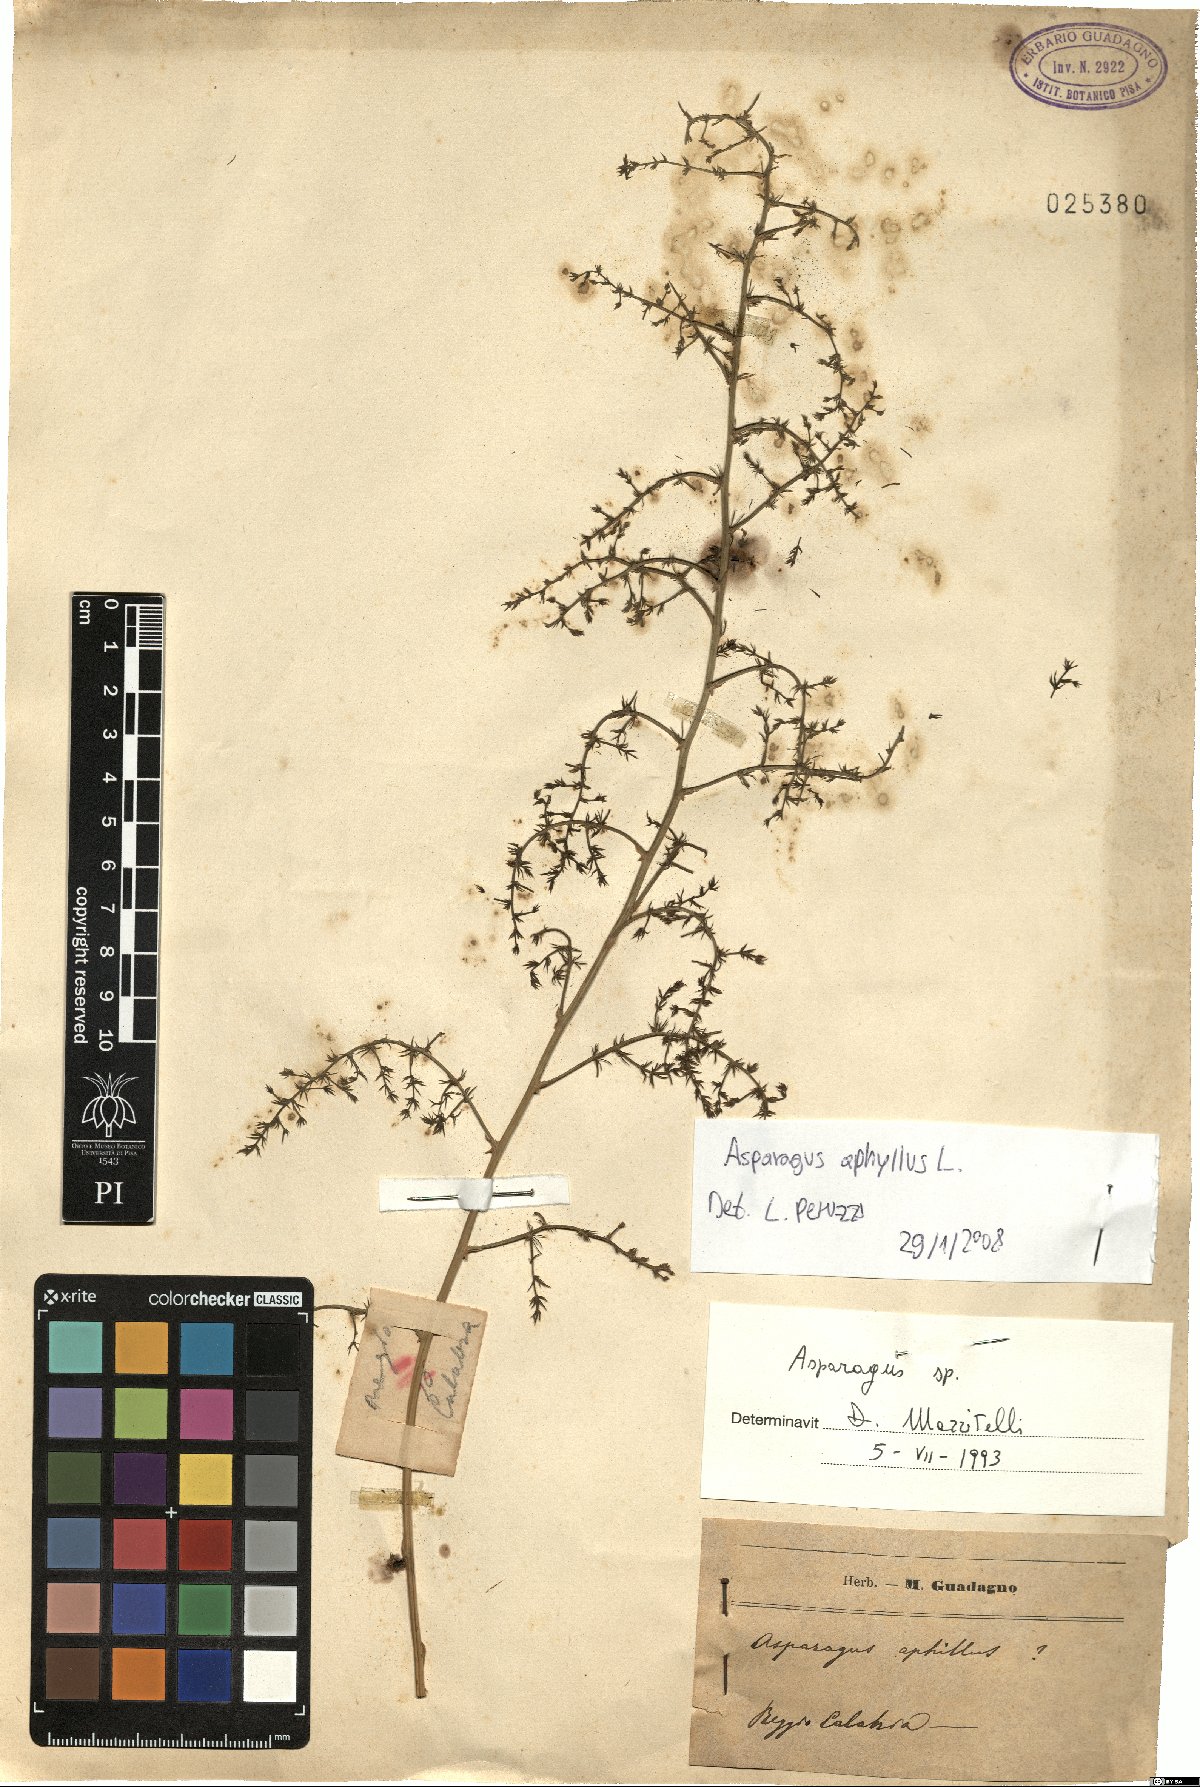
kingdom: Plantae
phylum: Tracheophyta
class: Liliopsida
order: Asparagales
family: Asparagaceae
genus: Asparagus
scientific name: Asparagus aphyllus
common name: Mediterranean asparagus
